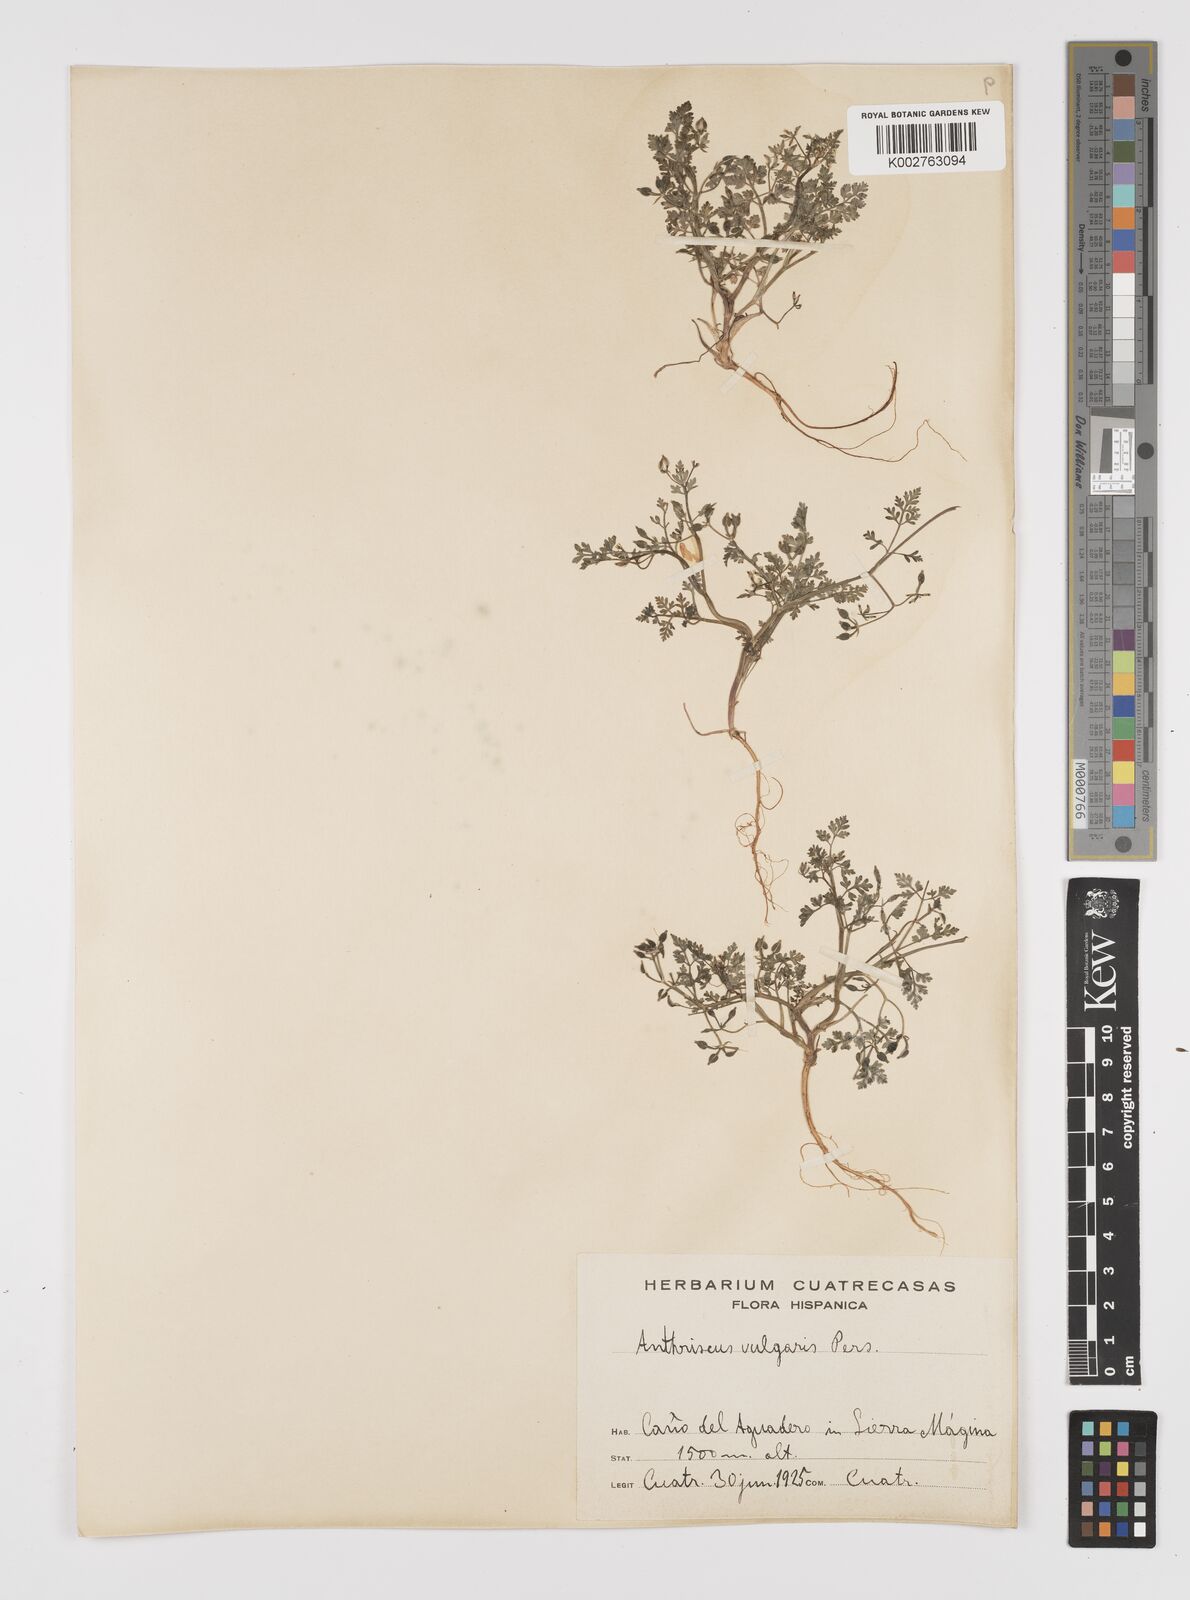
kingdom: Plantae
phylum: Tracheophyta
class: Magnoliopsida
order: Apiales
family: Apiaceae
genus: Anthriscus
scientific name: Anthriscus caucalis
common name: Bur chervil
